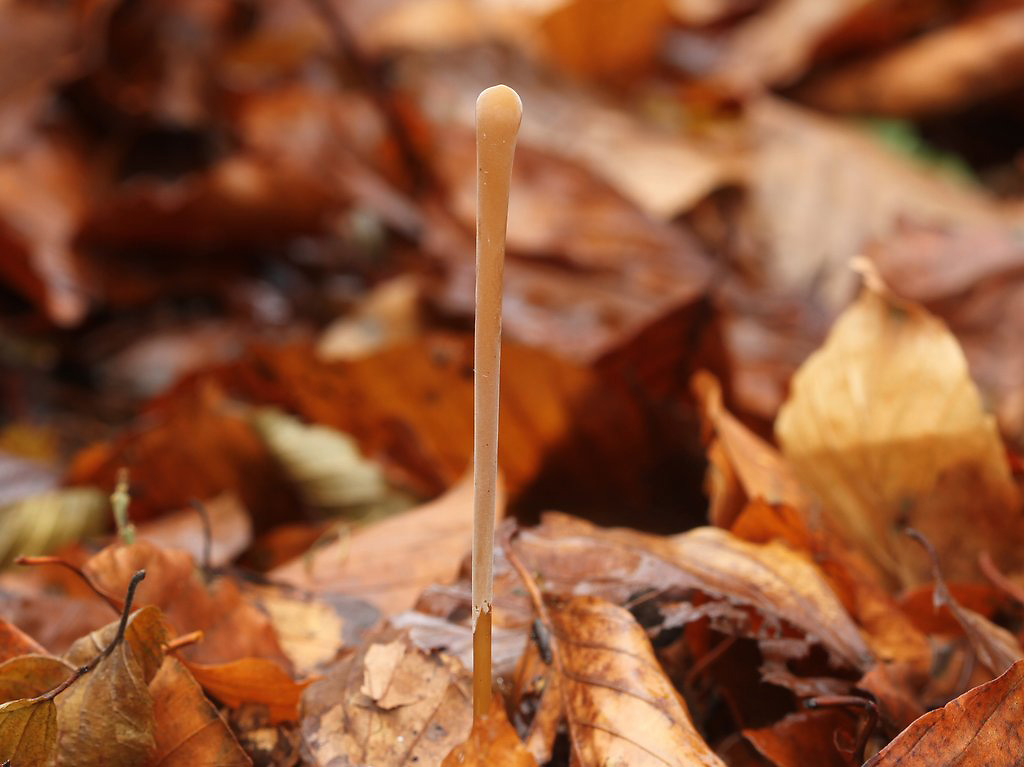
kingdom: Fungi
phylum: Basidiomycota
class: Agaricomycetes
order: Agaricales
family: Typhulaceae
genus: Typhula
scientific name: Typhula fistulosa
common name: pibet rørkølle
